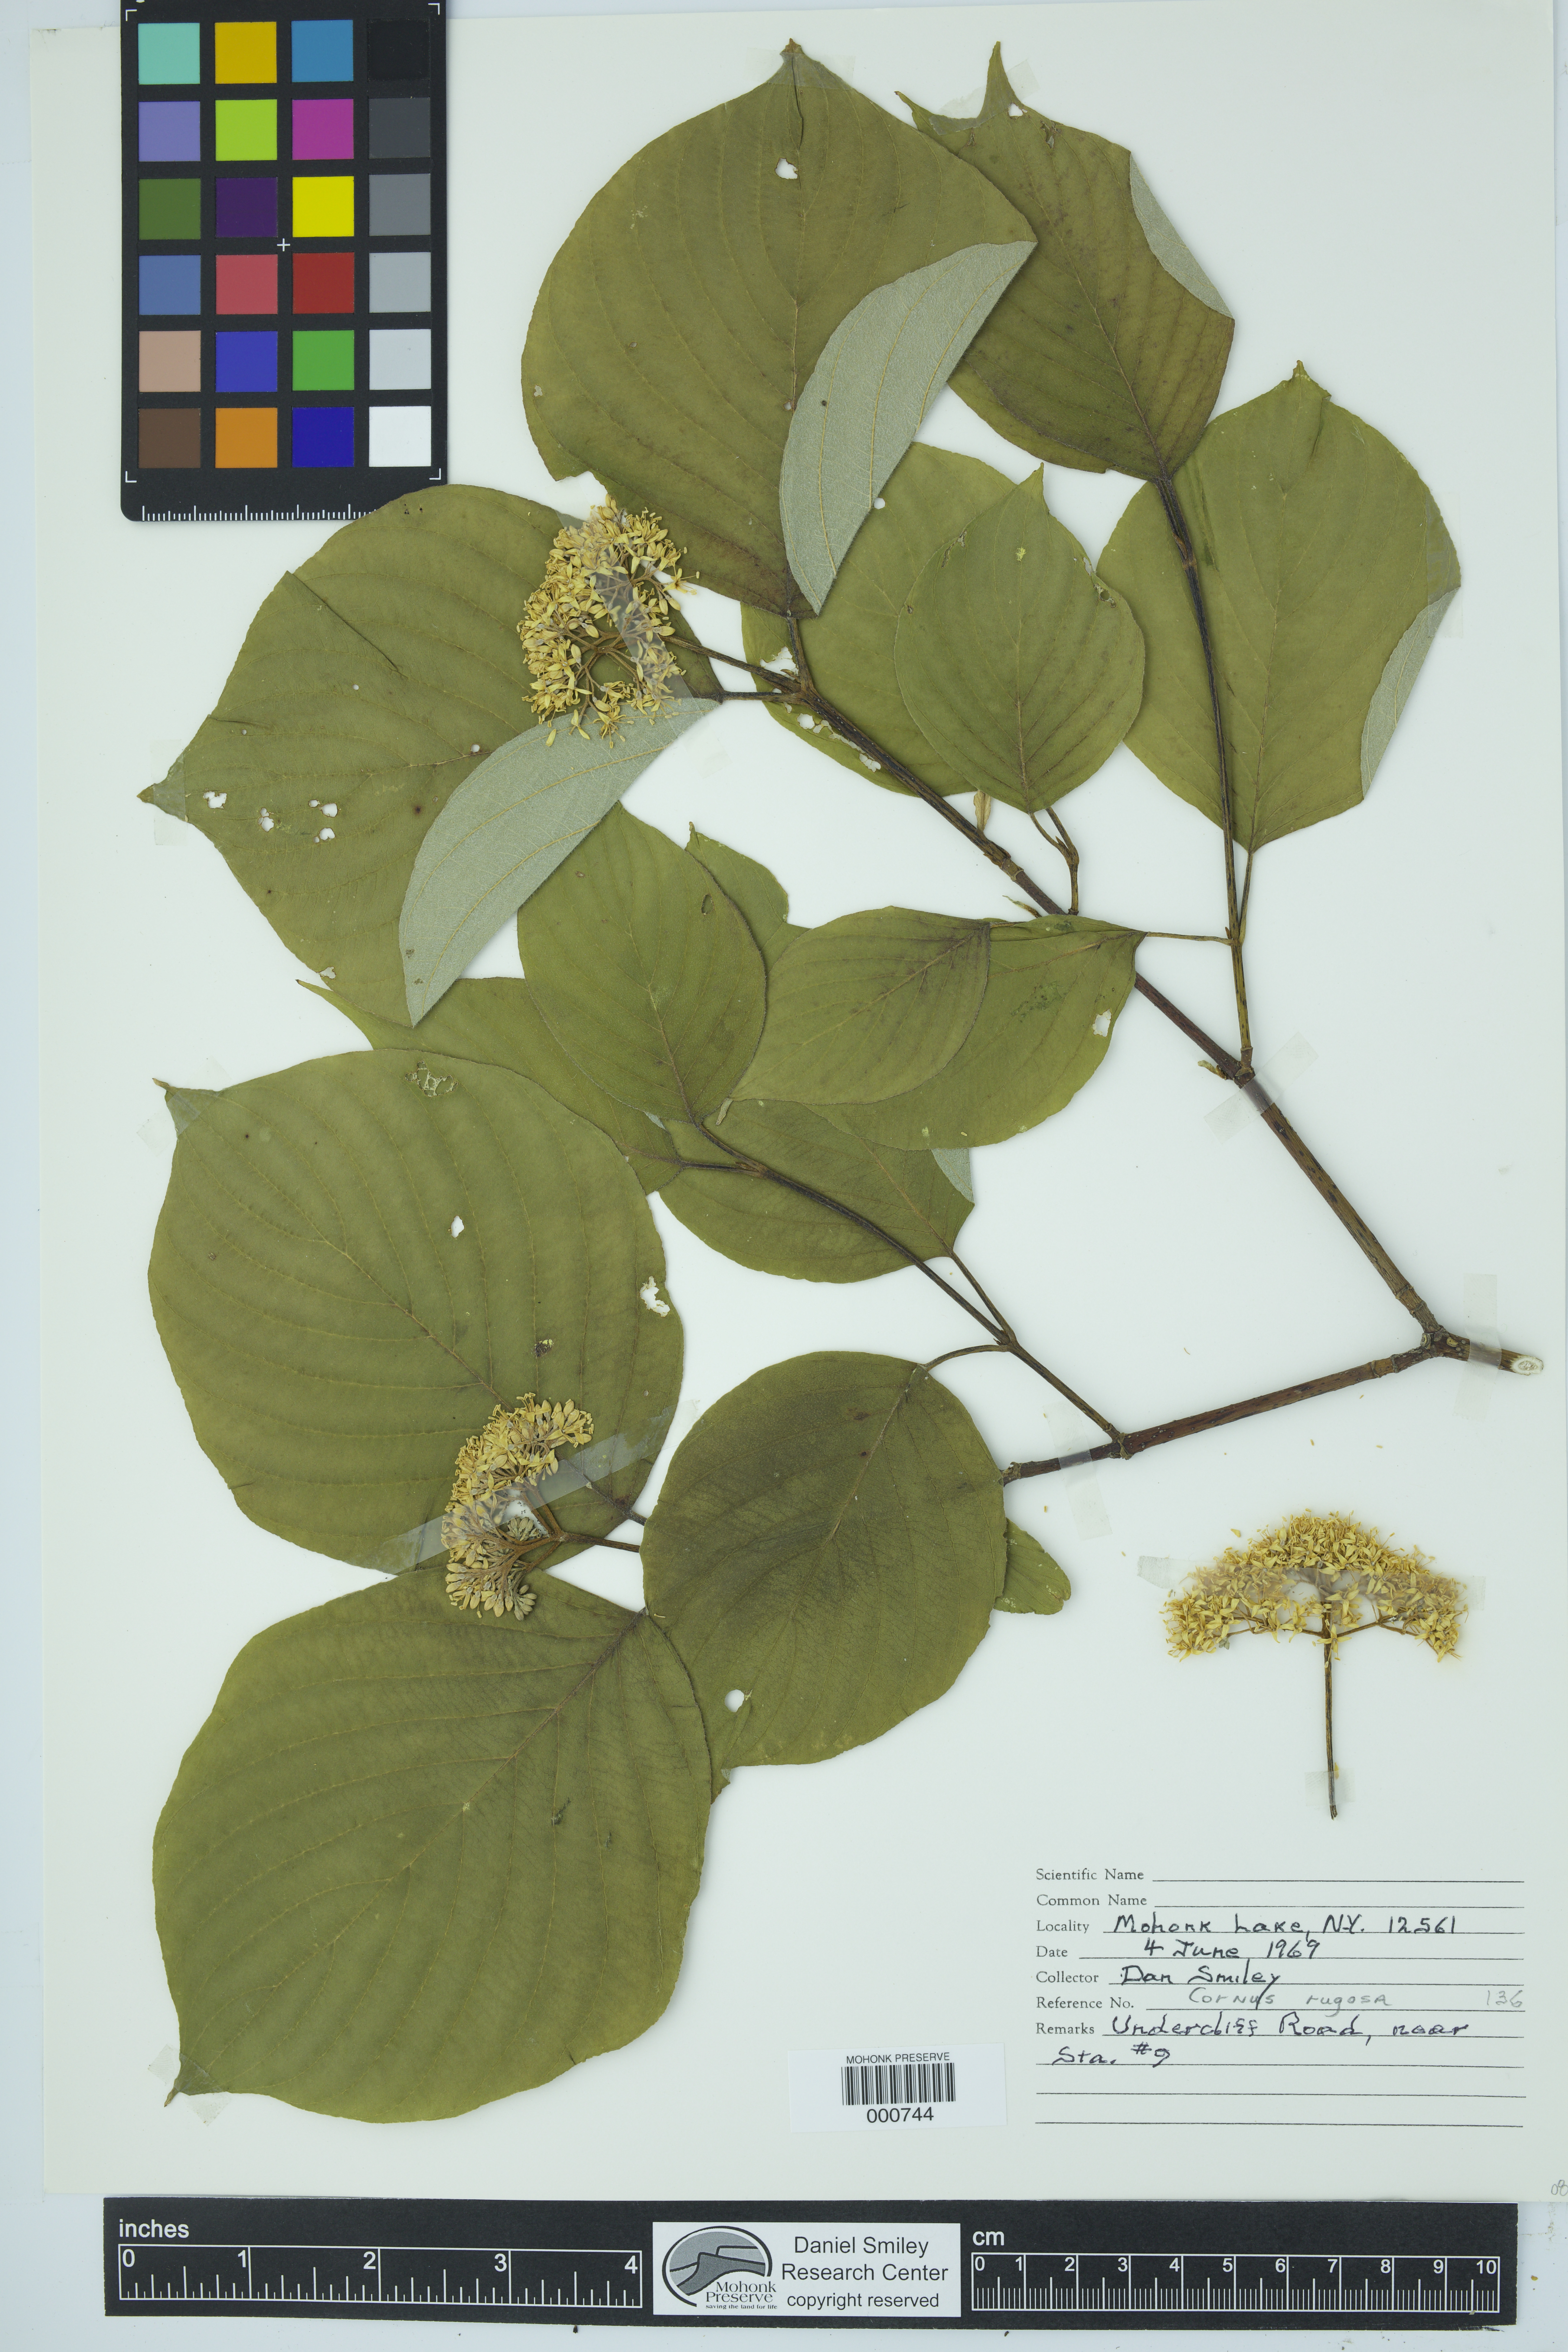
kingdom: Plantae
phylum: Tracheophyta
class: Magnoliopsida
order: Cornales
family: Cornaceae
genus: Cornus
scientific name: Cornus rugosa
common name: Round-leaf dogwood
